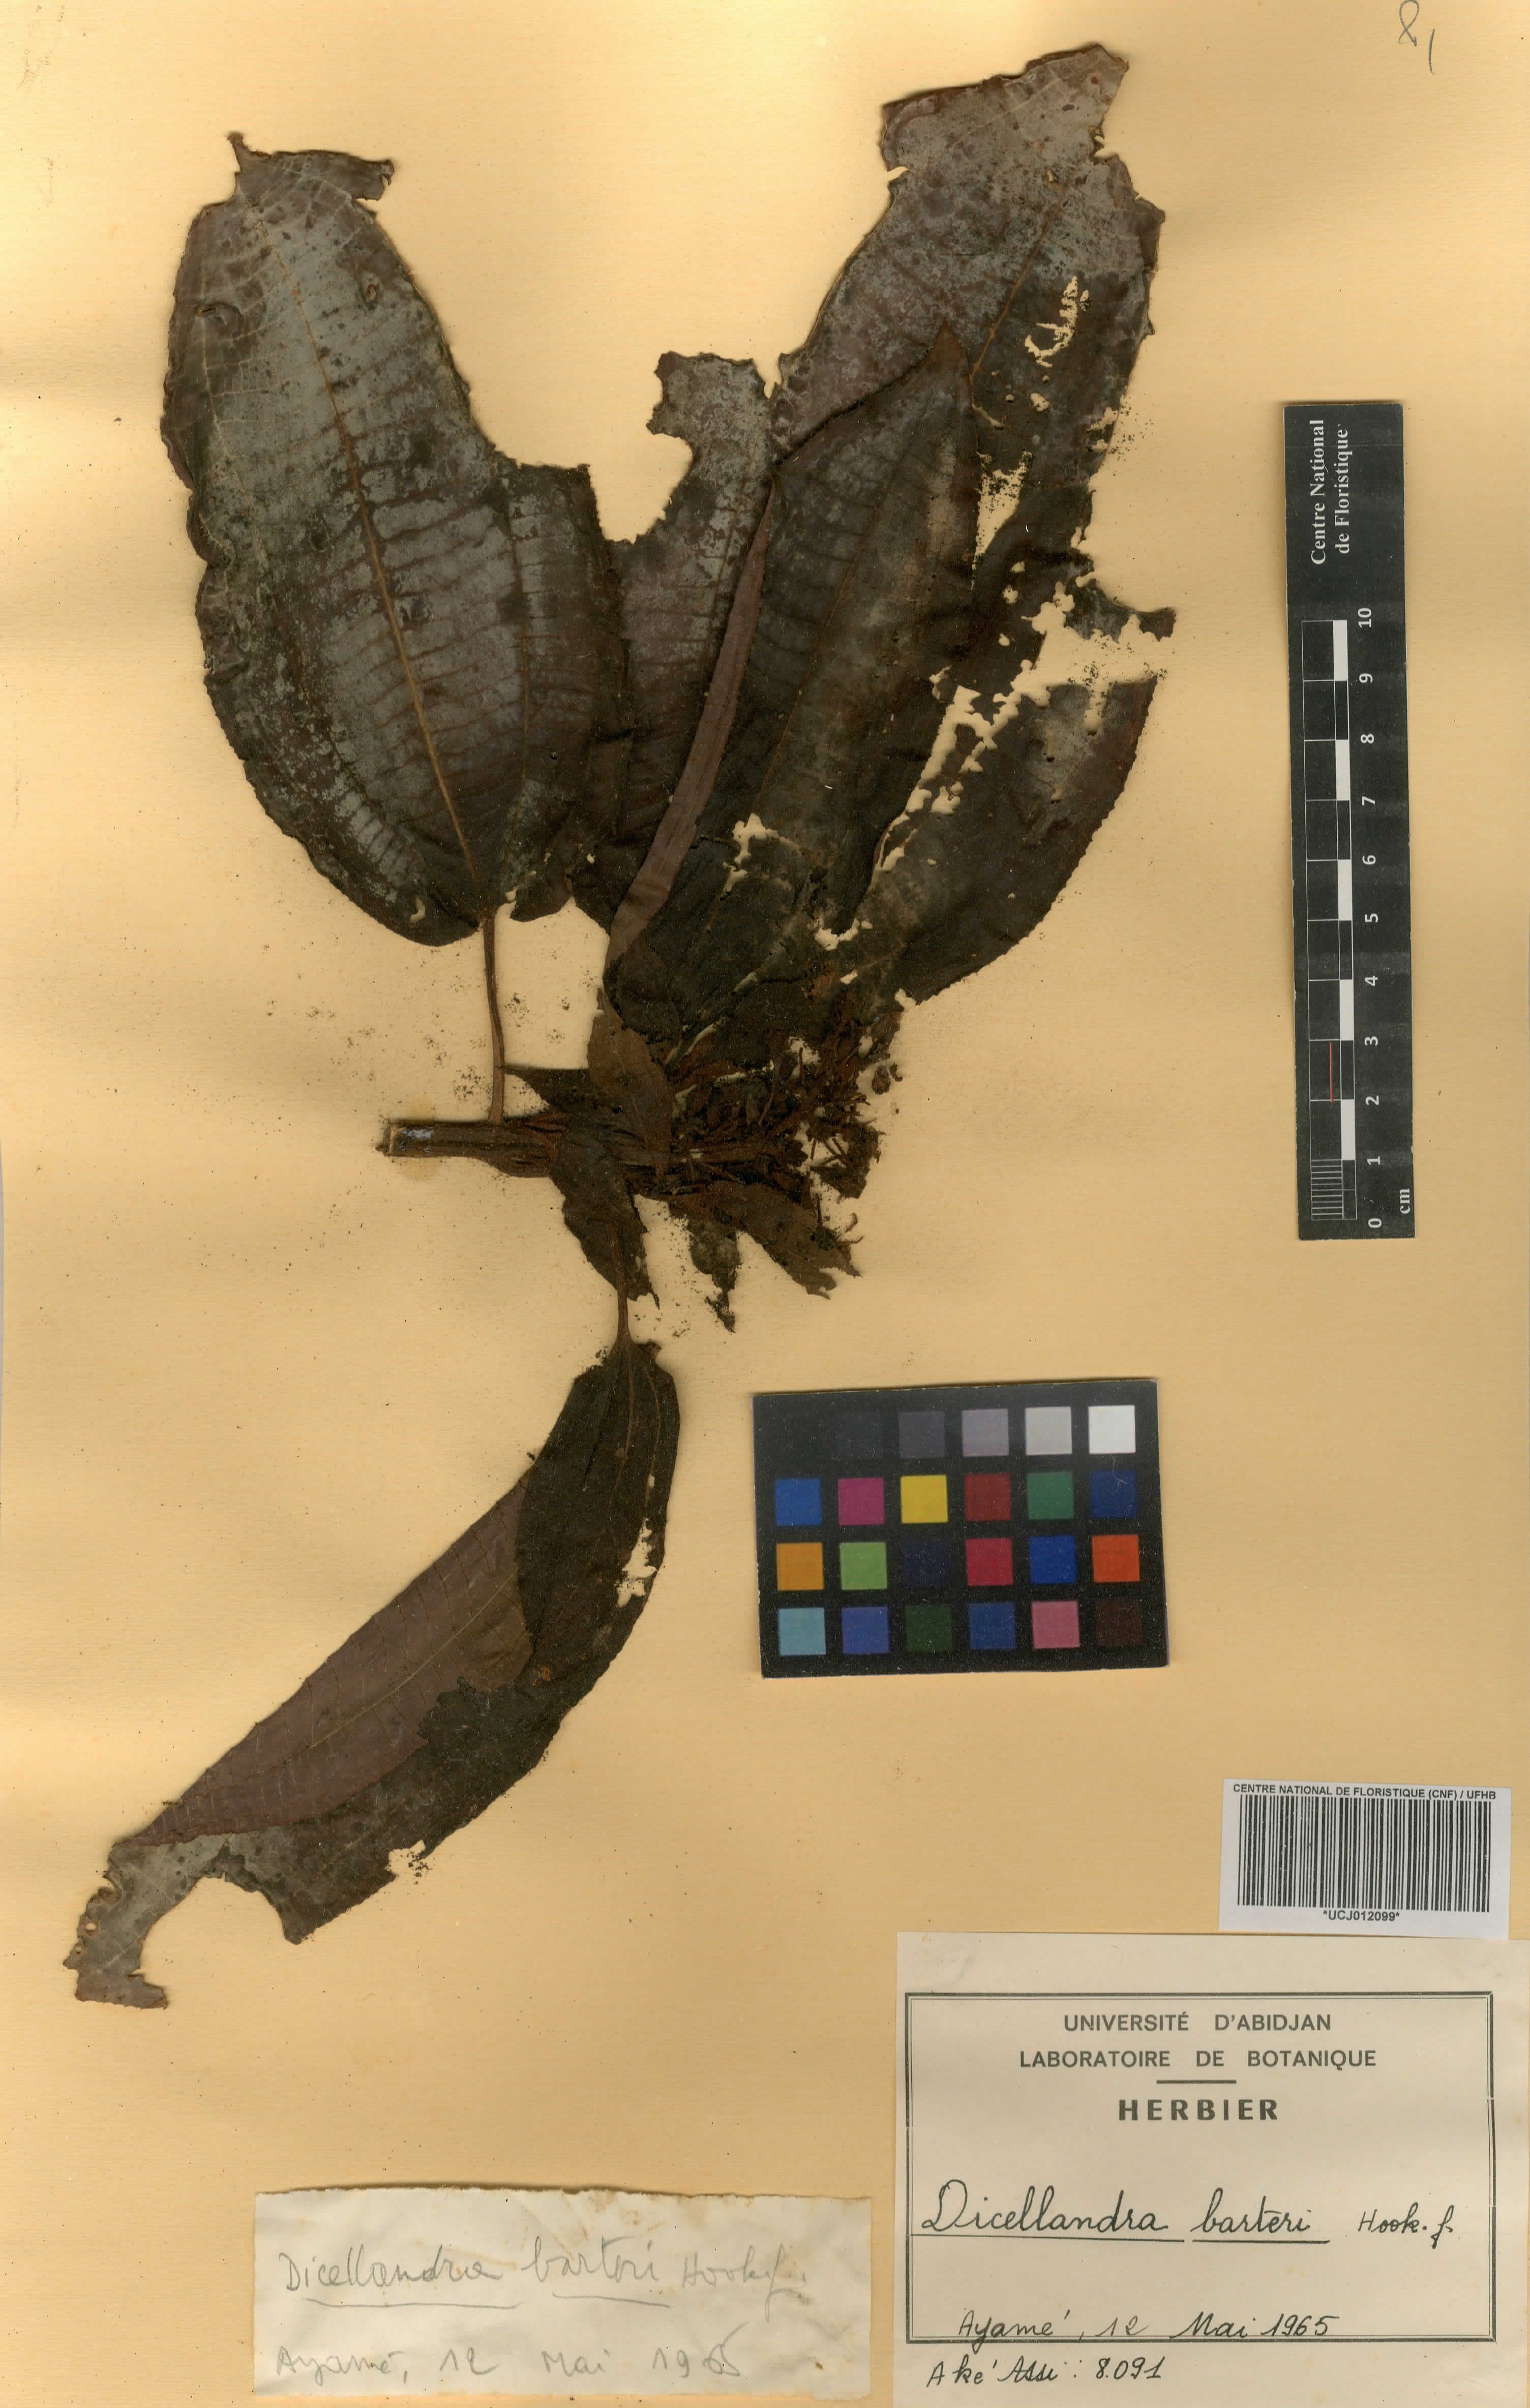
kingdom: Plantae
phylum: Tracheophyta
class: Magnoliopsida
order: Myrtales
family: Melastomataceae
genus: Dicellandra
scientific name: Dicellandra barteri
